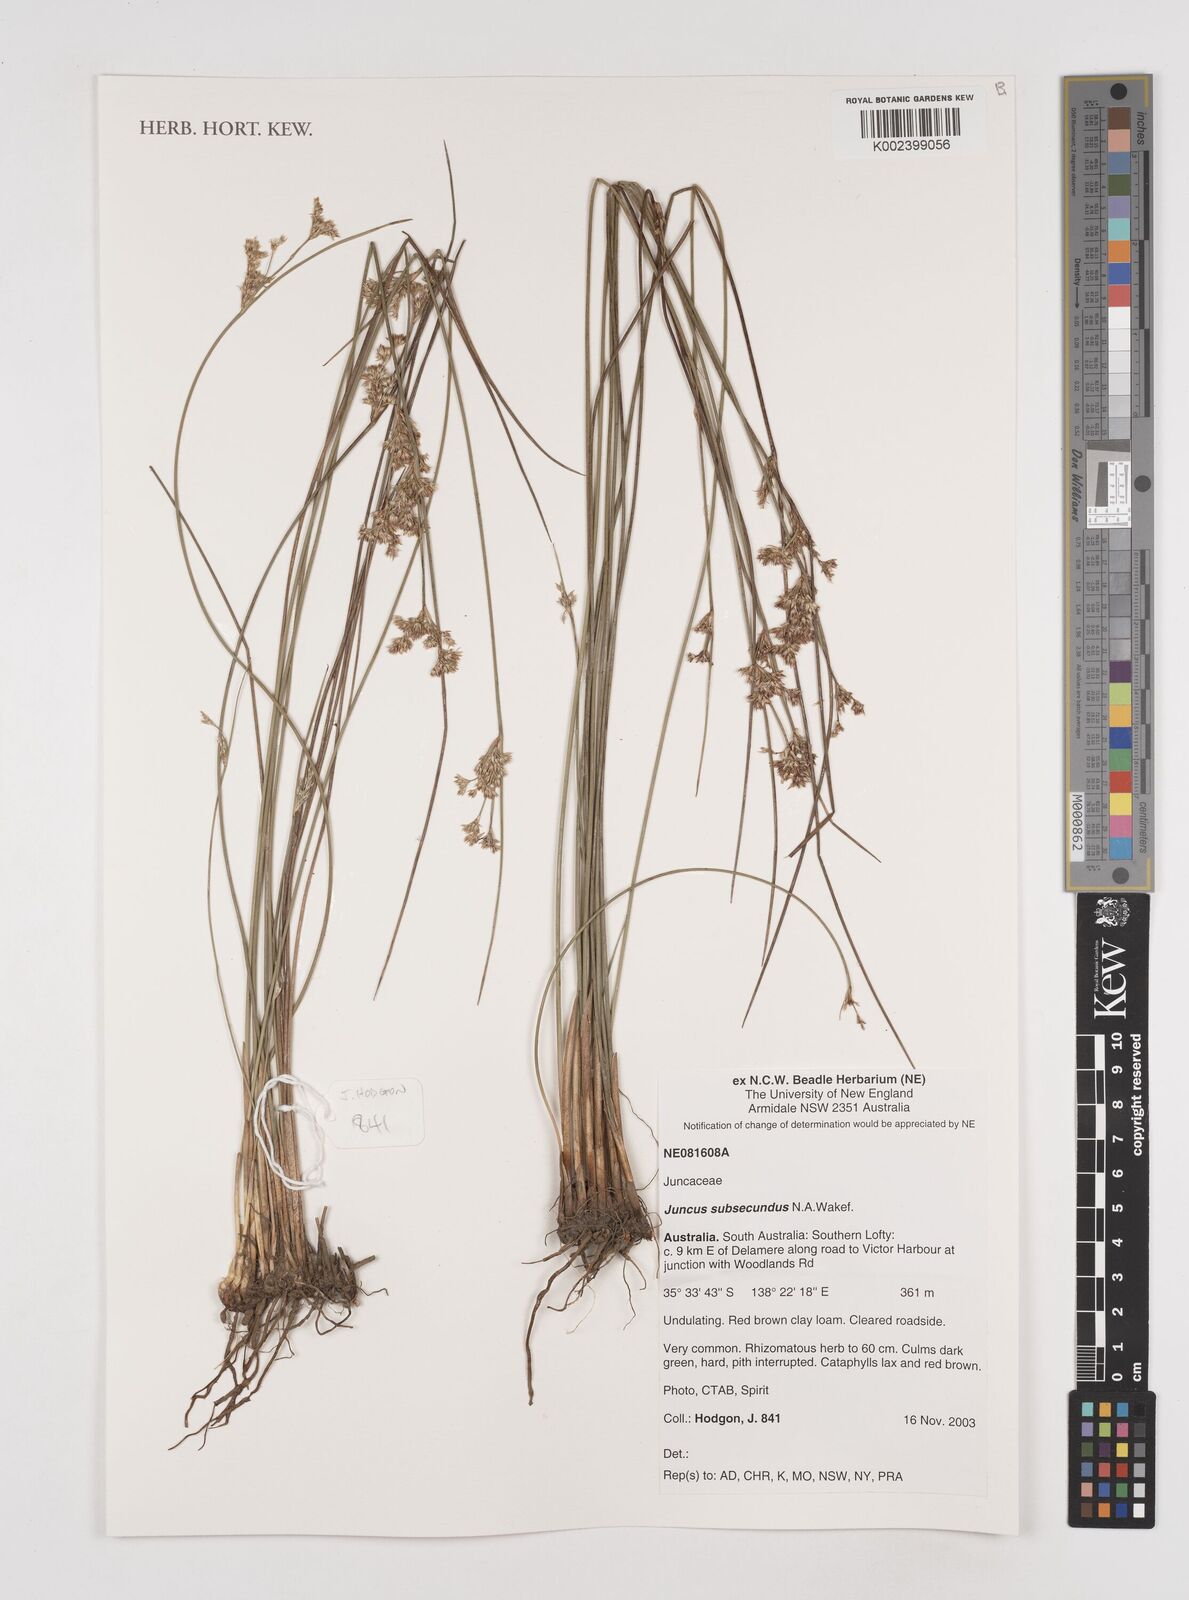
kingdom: Plantae
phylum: Tracheophyta
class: Liliopsida
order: Poales
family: Juncaceae
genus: Juncus
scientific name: Juncus subsecundus
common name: Fingered rush
